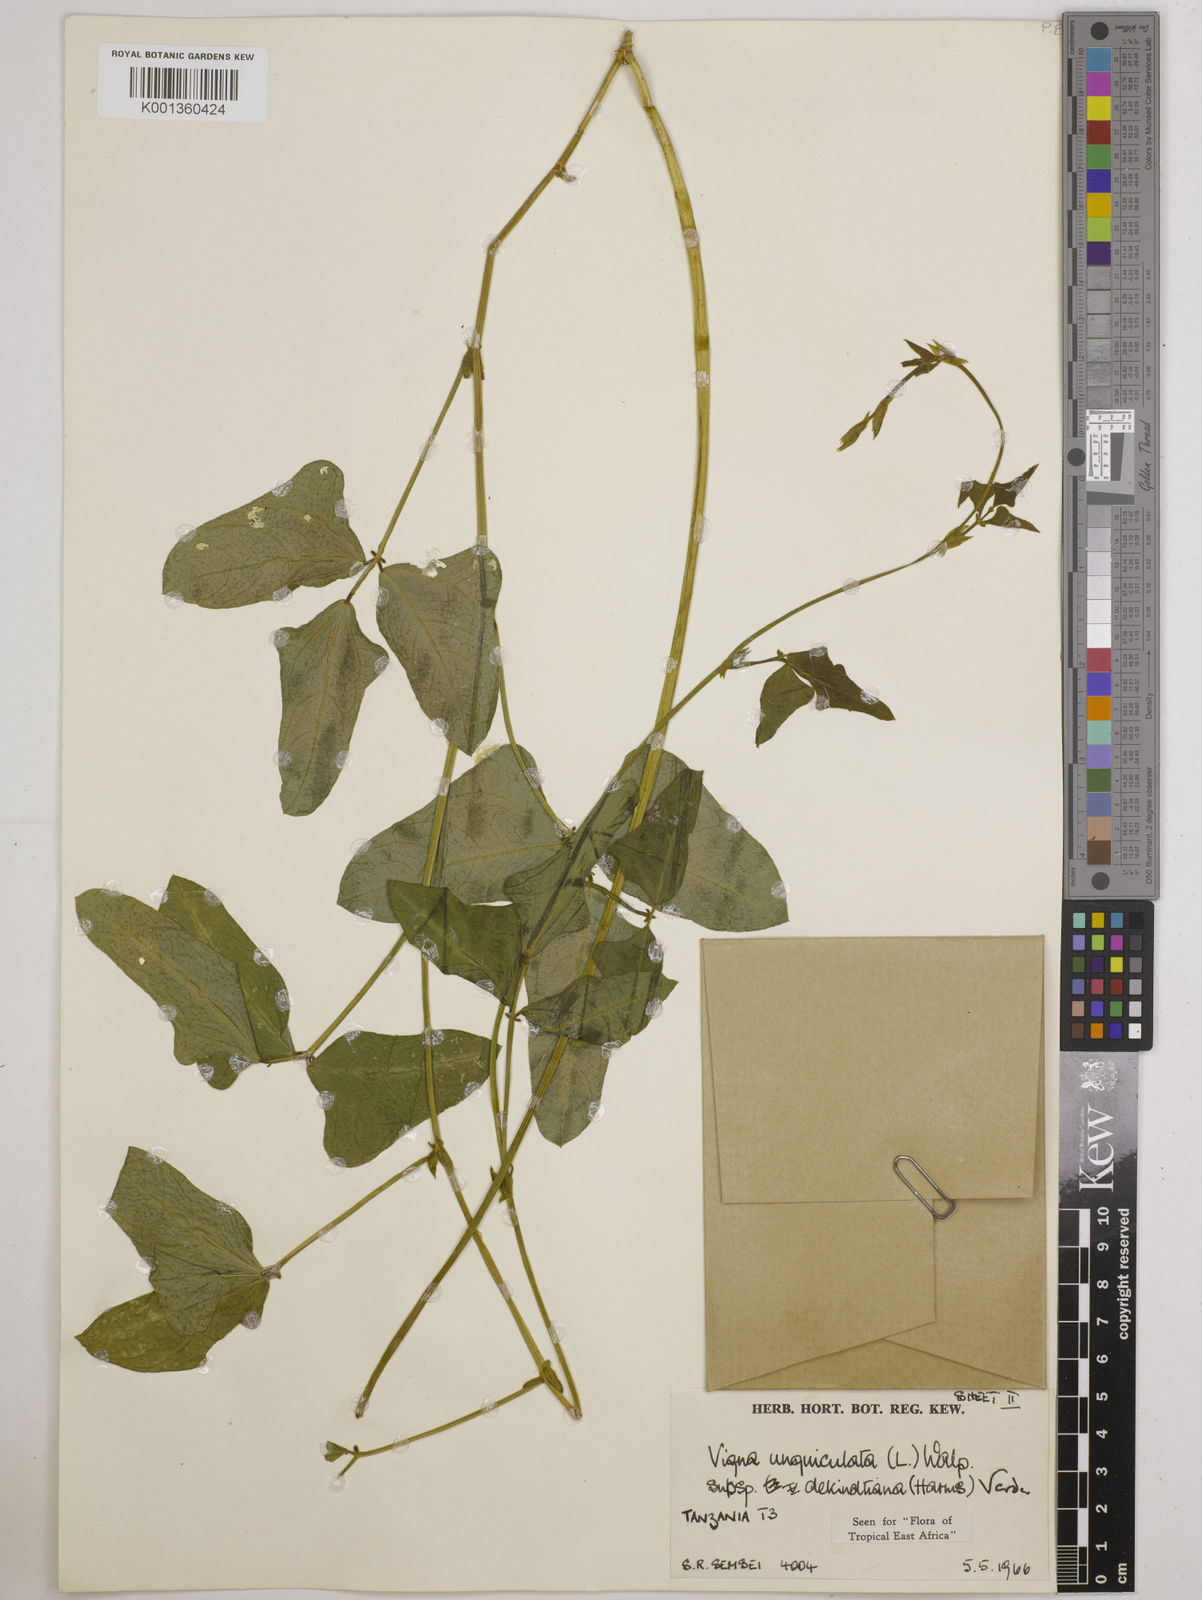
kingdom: Plantae
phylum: Tracheophyta
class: Magnoliopsida
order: Fabales
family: Fabaceae
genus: Vigna
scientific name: Vigna
